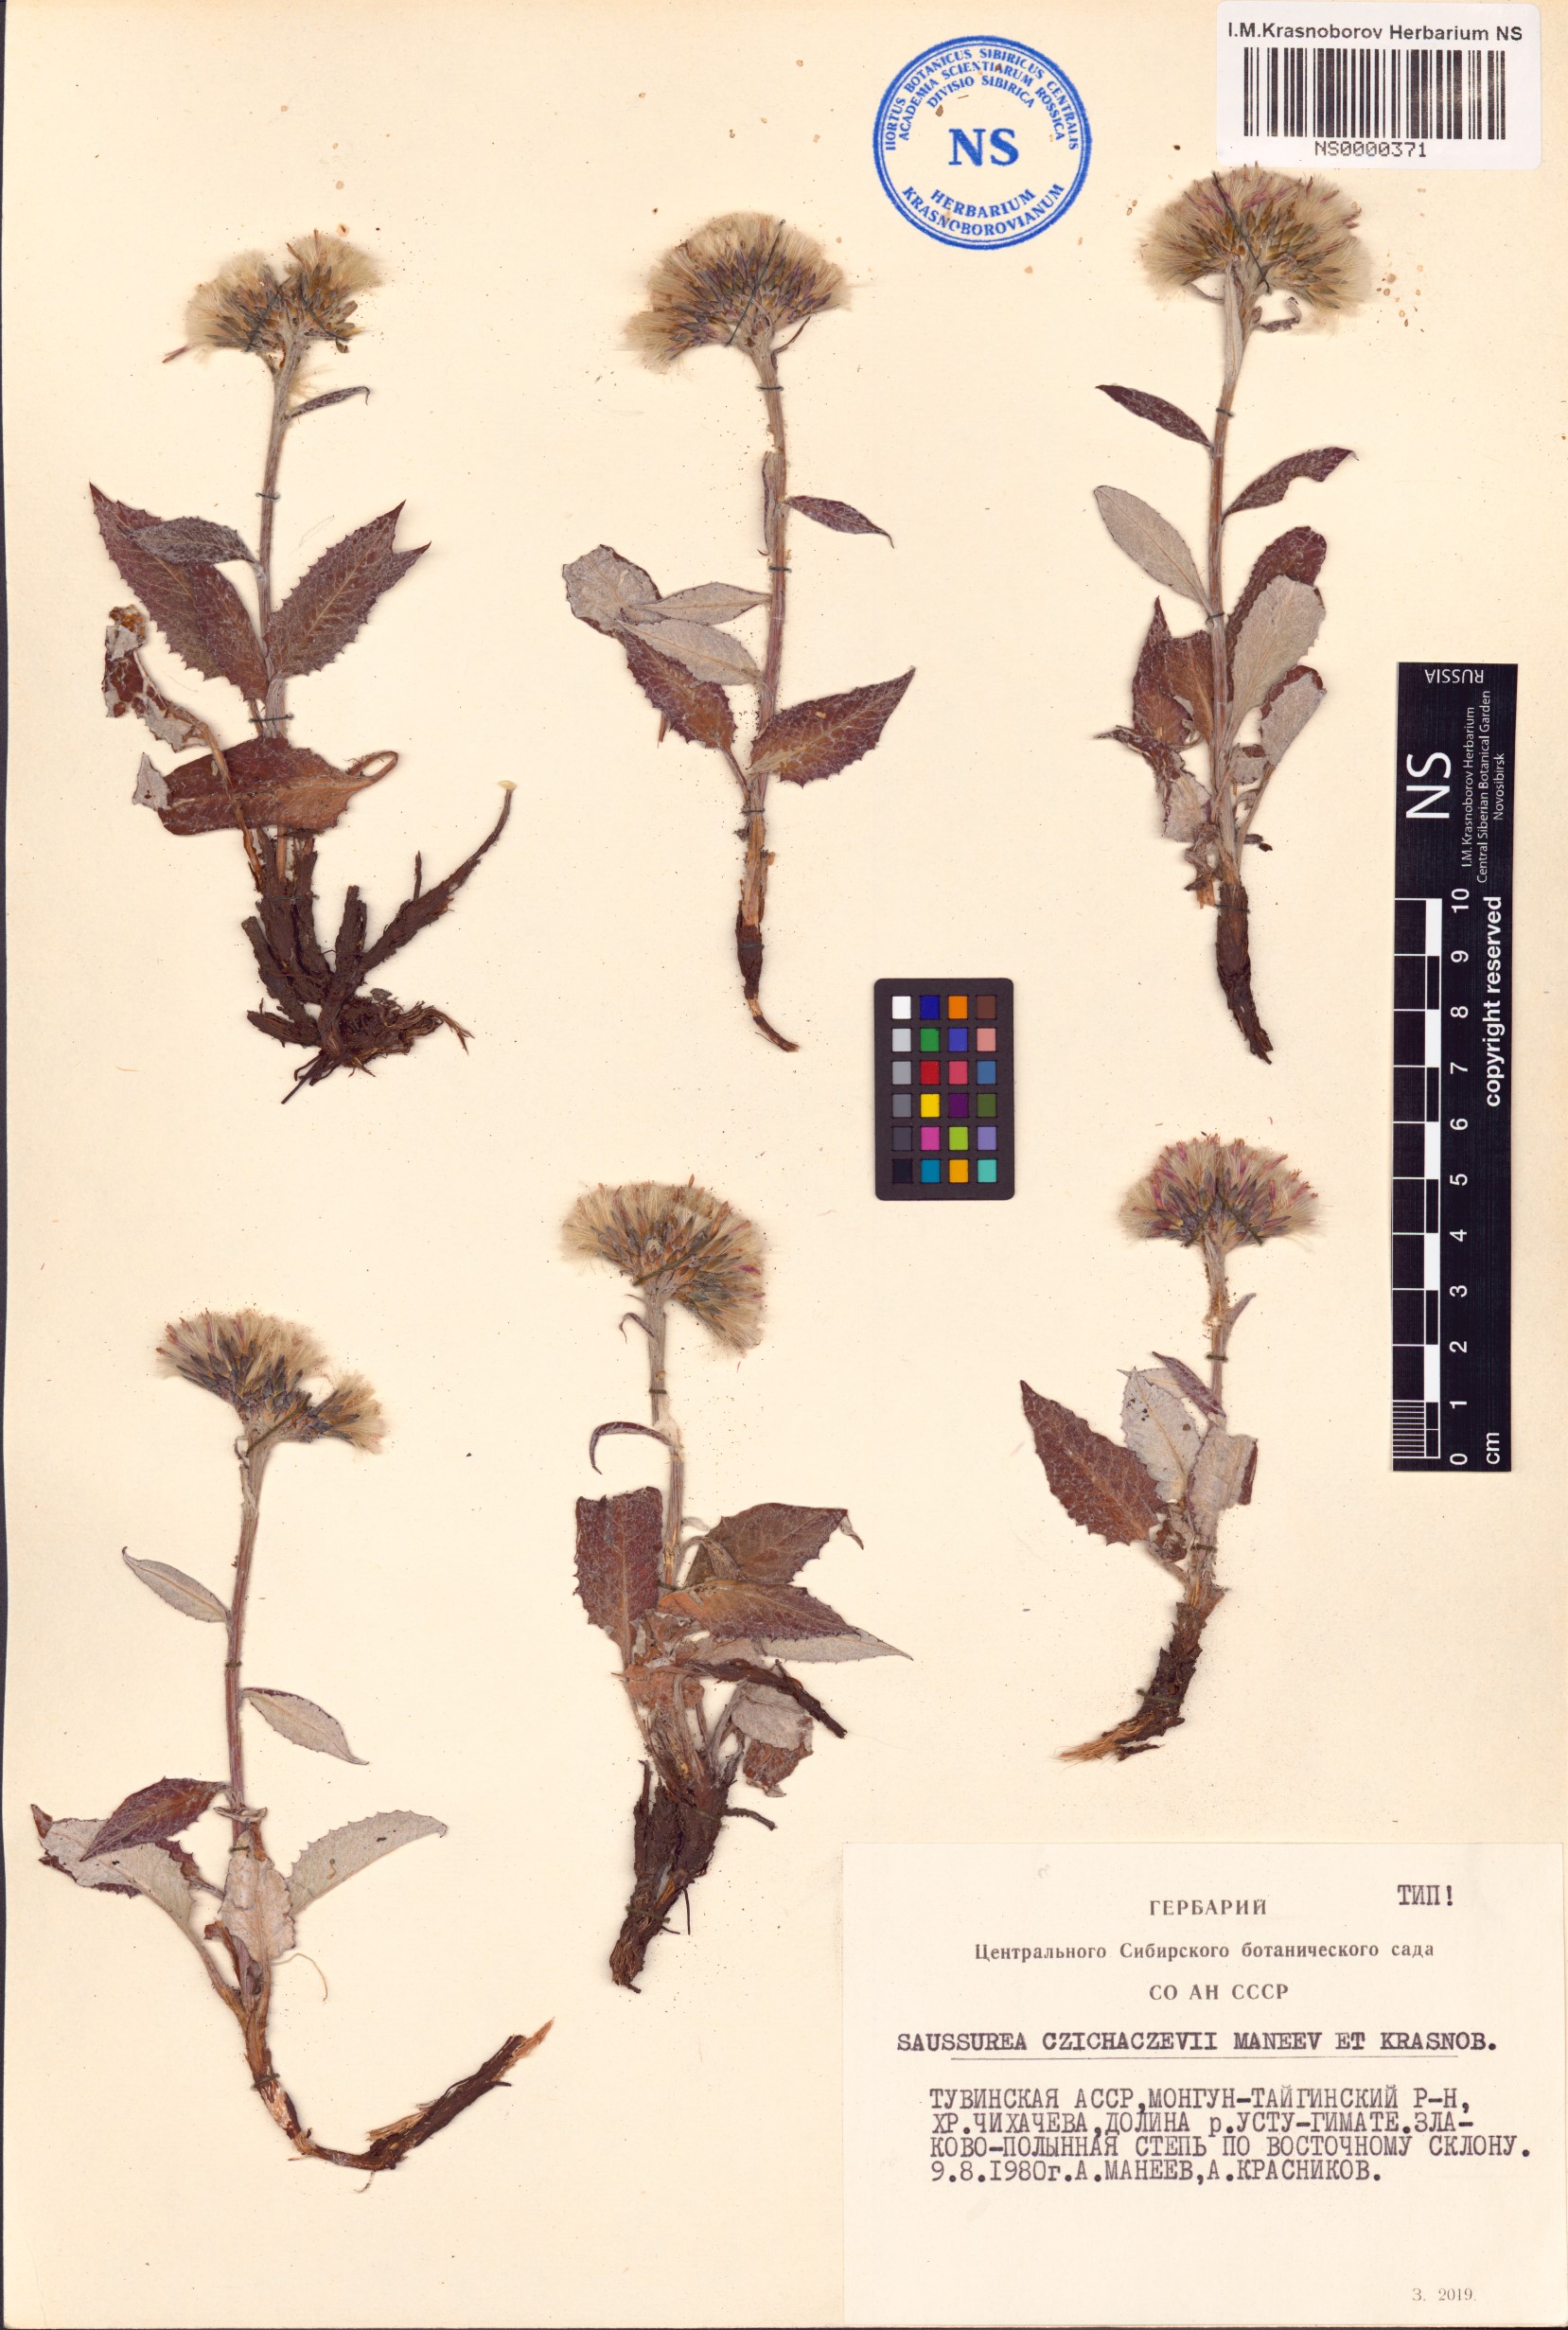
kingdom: Plantae
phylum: Tracheophyta
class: Magnoliopsida
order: Asterales
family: Asteraceae
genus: Saussurea
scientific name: Saussurea czichaczevii
